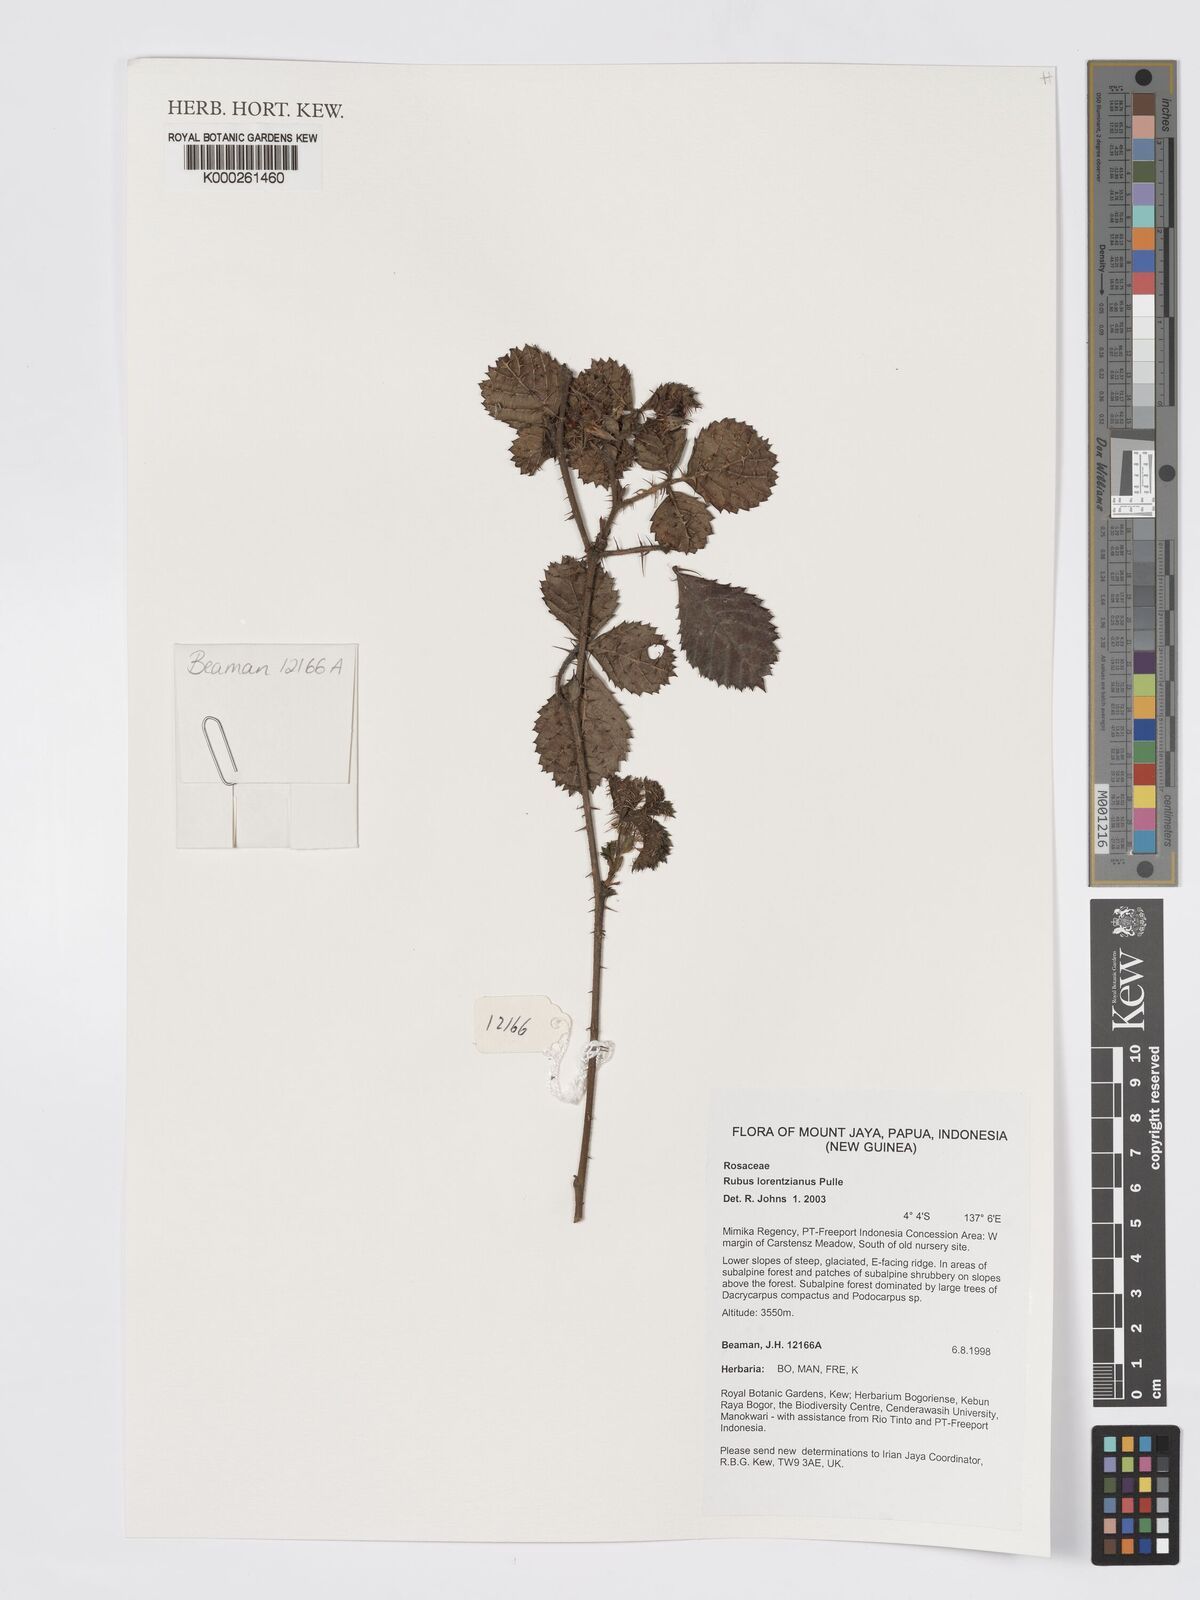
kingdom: Plantae
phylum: Tracheophyta
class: Magnoliopsida
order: Rosales
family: Rosaceae
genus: Rubus
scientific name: Rubus lorentzianus
